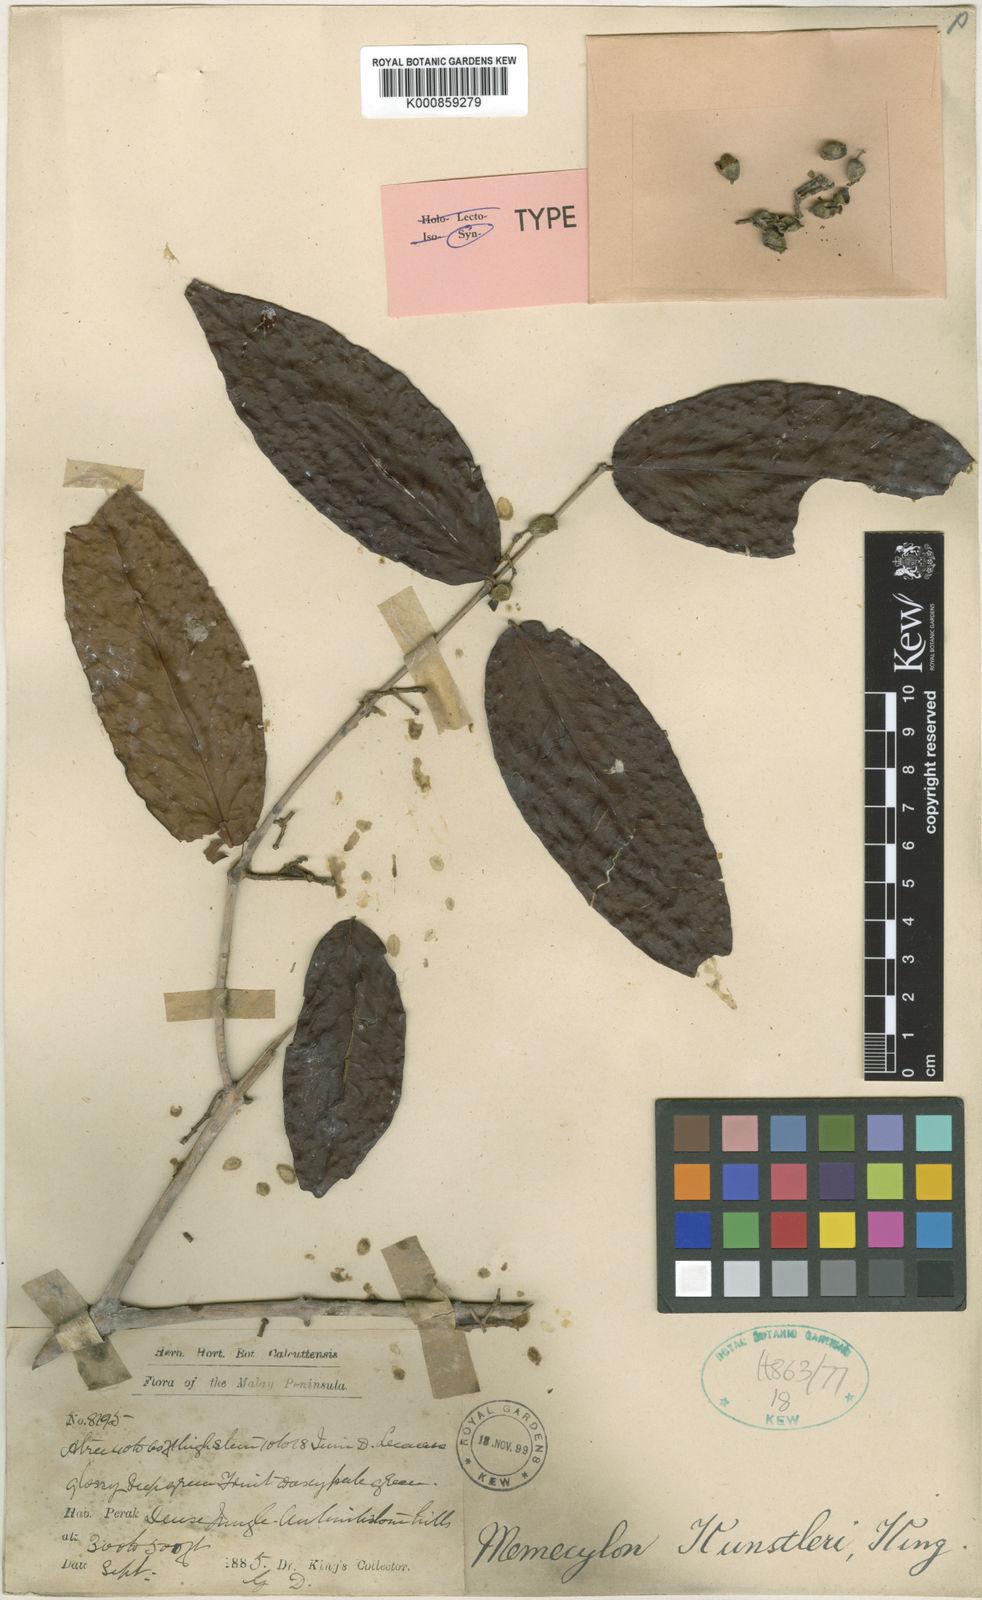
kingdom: Plantae
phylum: Tracheophyta
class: Magnoliopsida
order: Myrtales
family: Melastomataceae
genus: Memecylon
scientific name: Memecylon kunstleri
